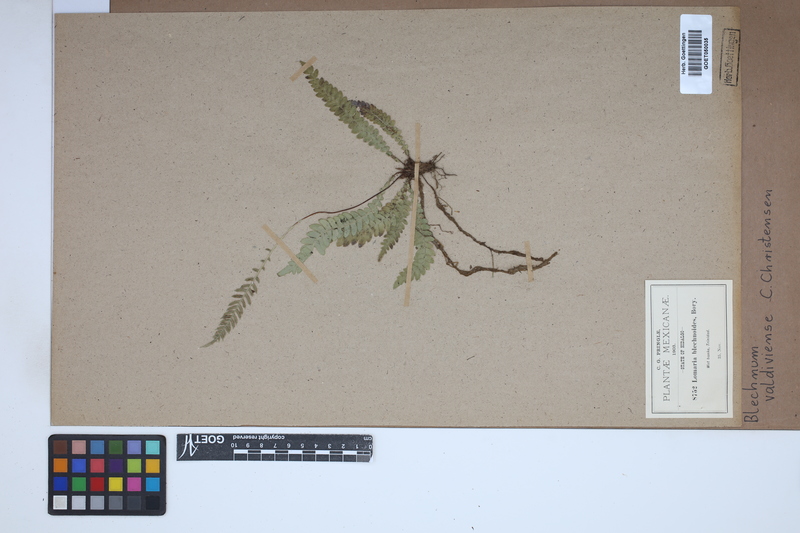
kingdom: Plantae
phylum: Tracheophyta
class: Polypodiopsida
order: Polypodiales
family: Blechnaceae
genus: Austroblechnum
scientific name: Austroblechnum leyboldtianum
